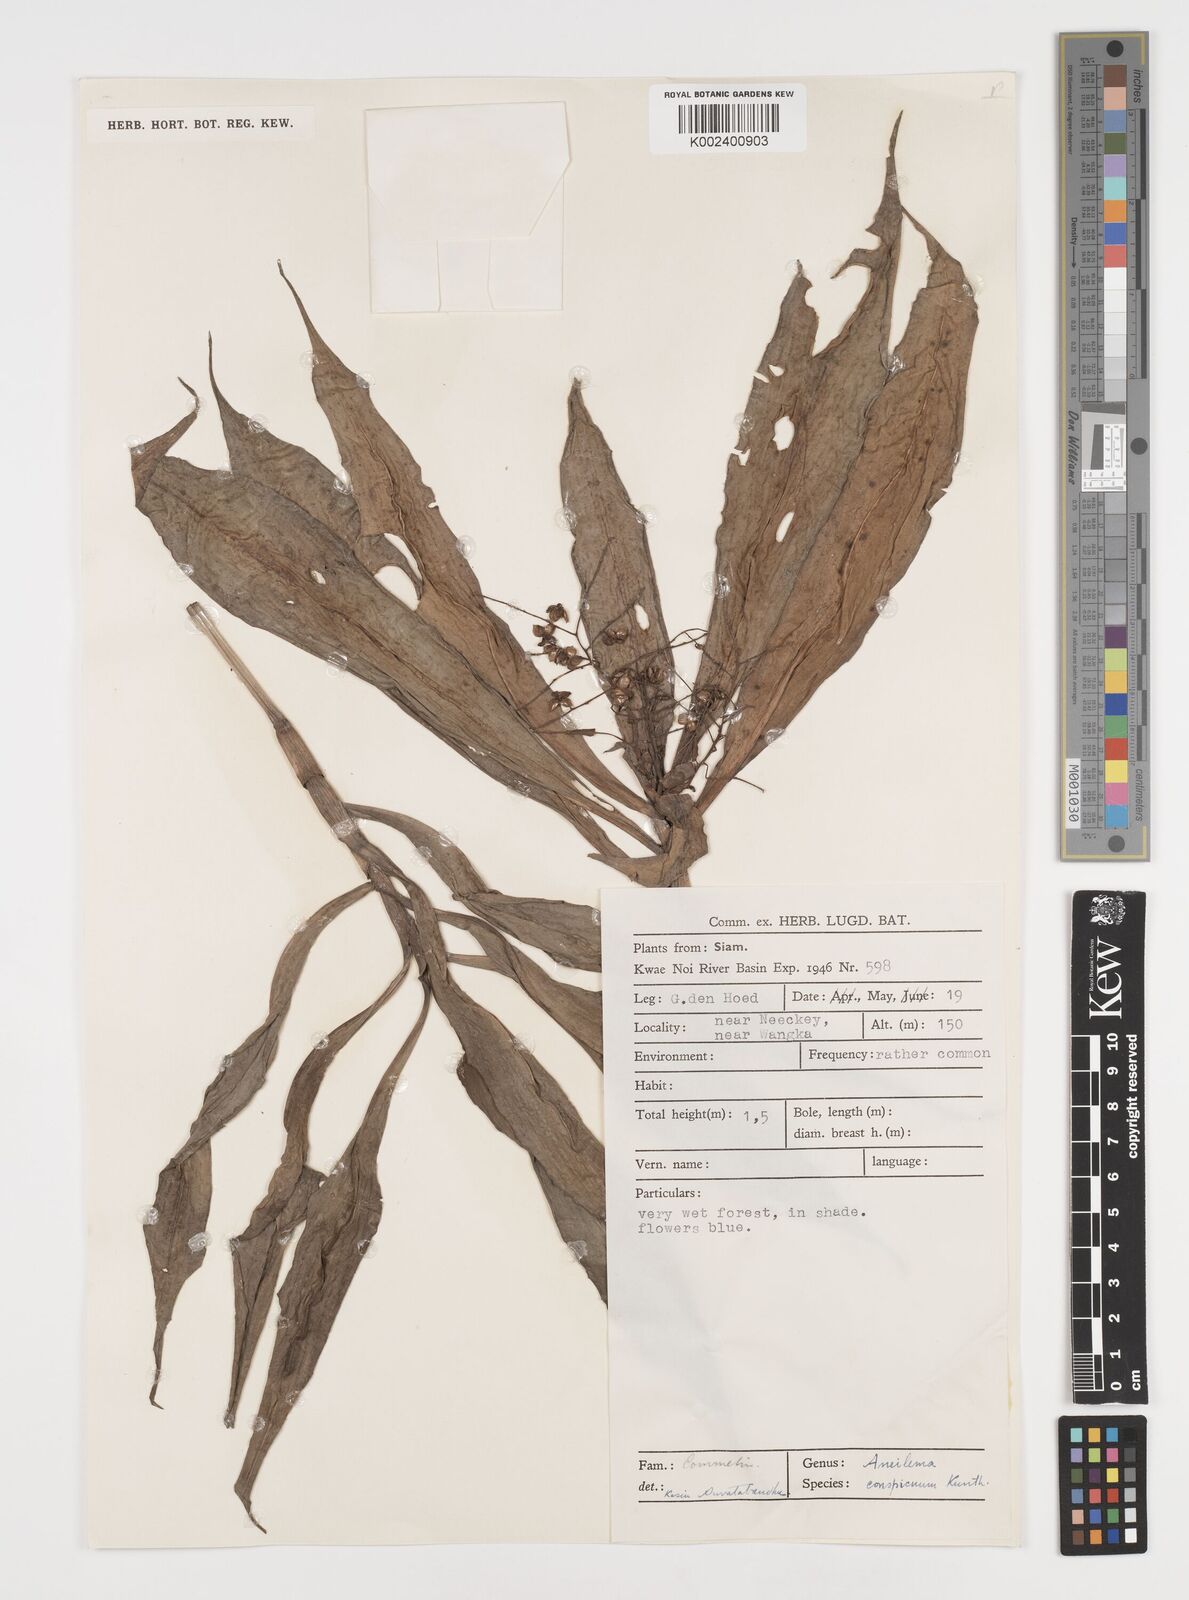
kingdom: Plantae
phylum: Tracheophyta
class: Liliopsida
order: Commelinales
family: Commelinaceae
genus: Dictyospermum
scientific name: Dictyospermum conspicuum
